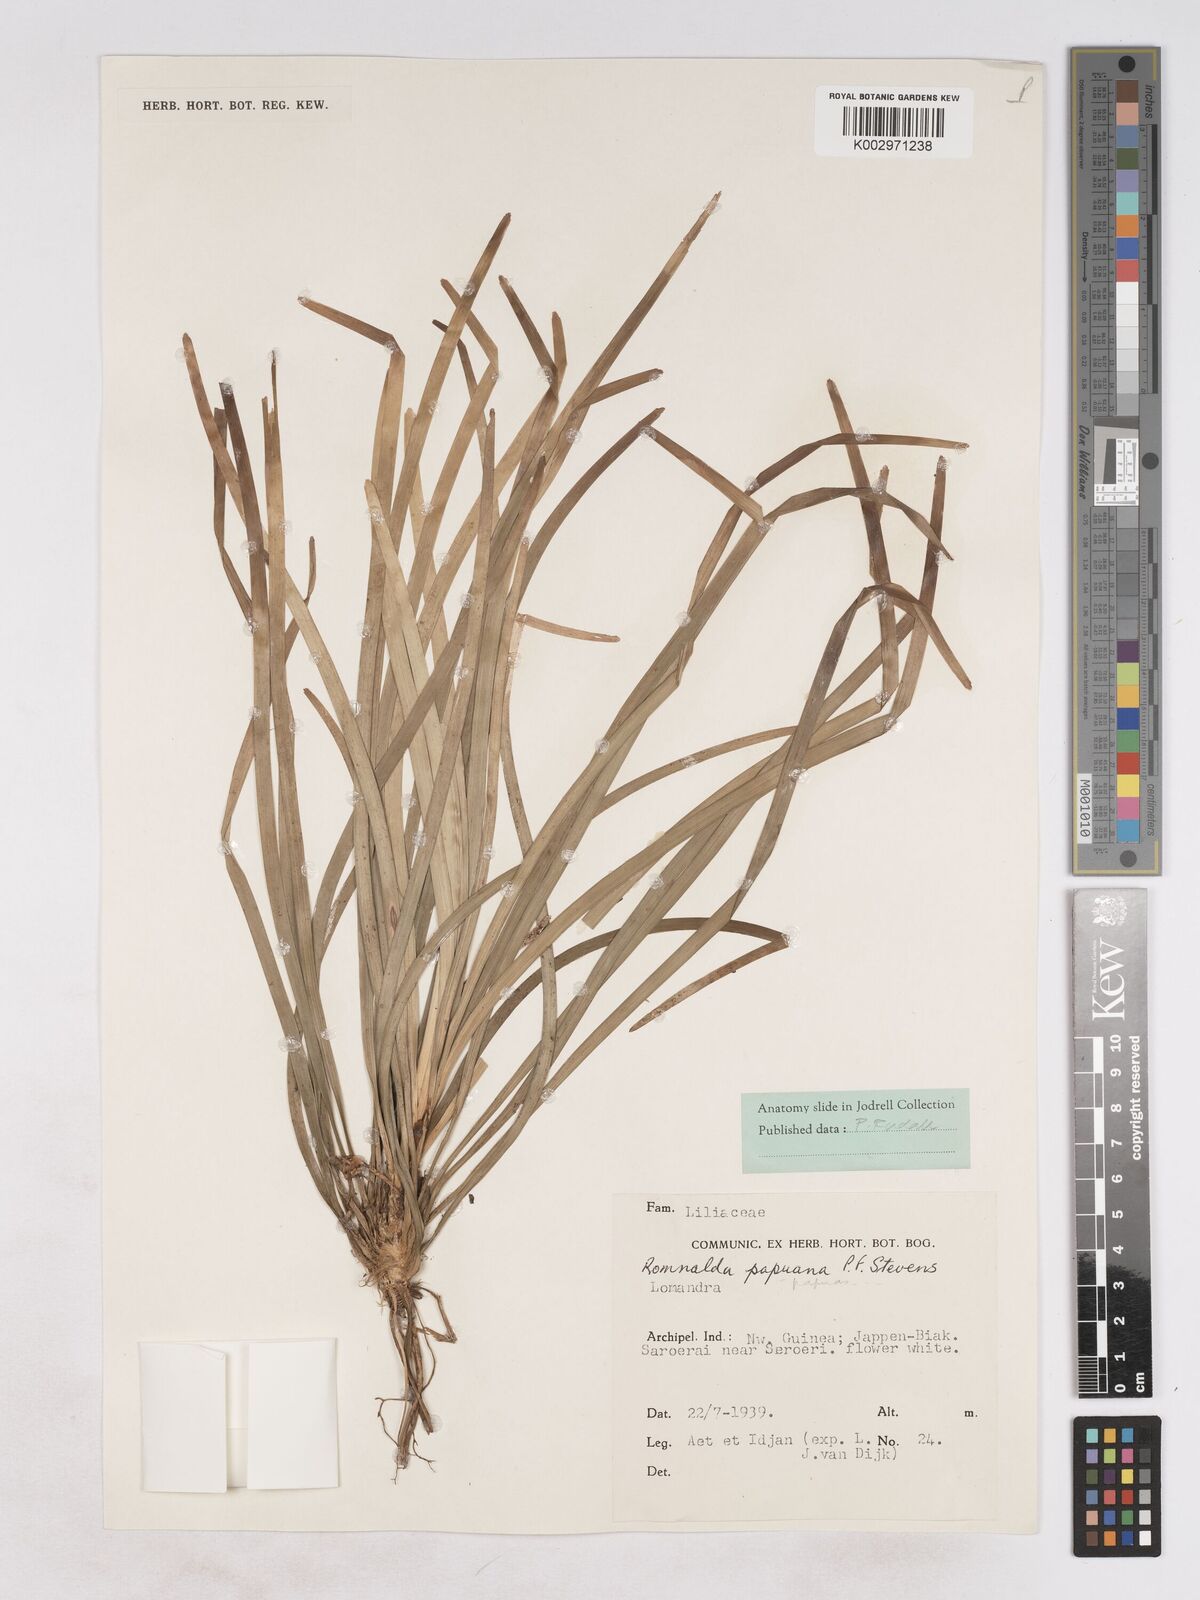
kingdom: Plantae
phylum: Tracheophyta
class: Liliopsida
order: Asparagales
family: Asparagaceae
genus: Romnalda
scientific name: Romnalda papuana
